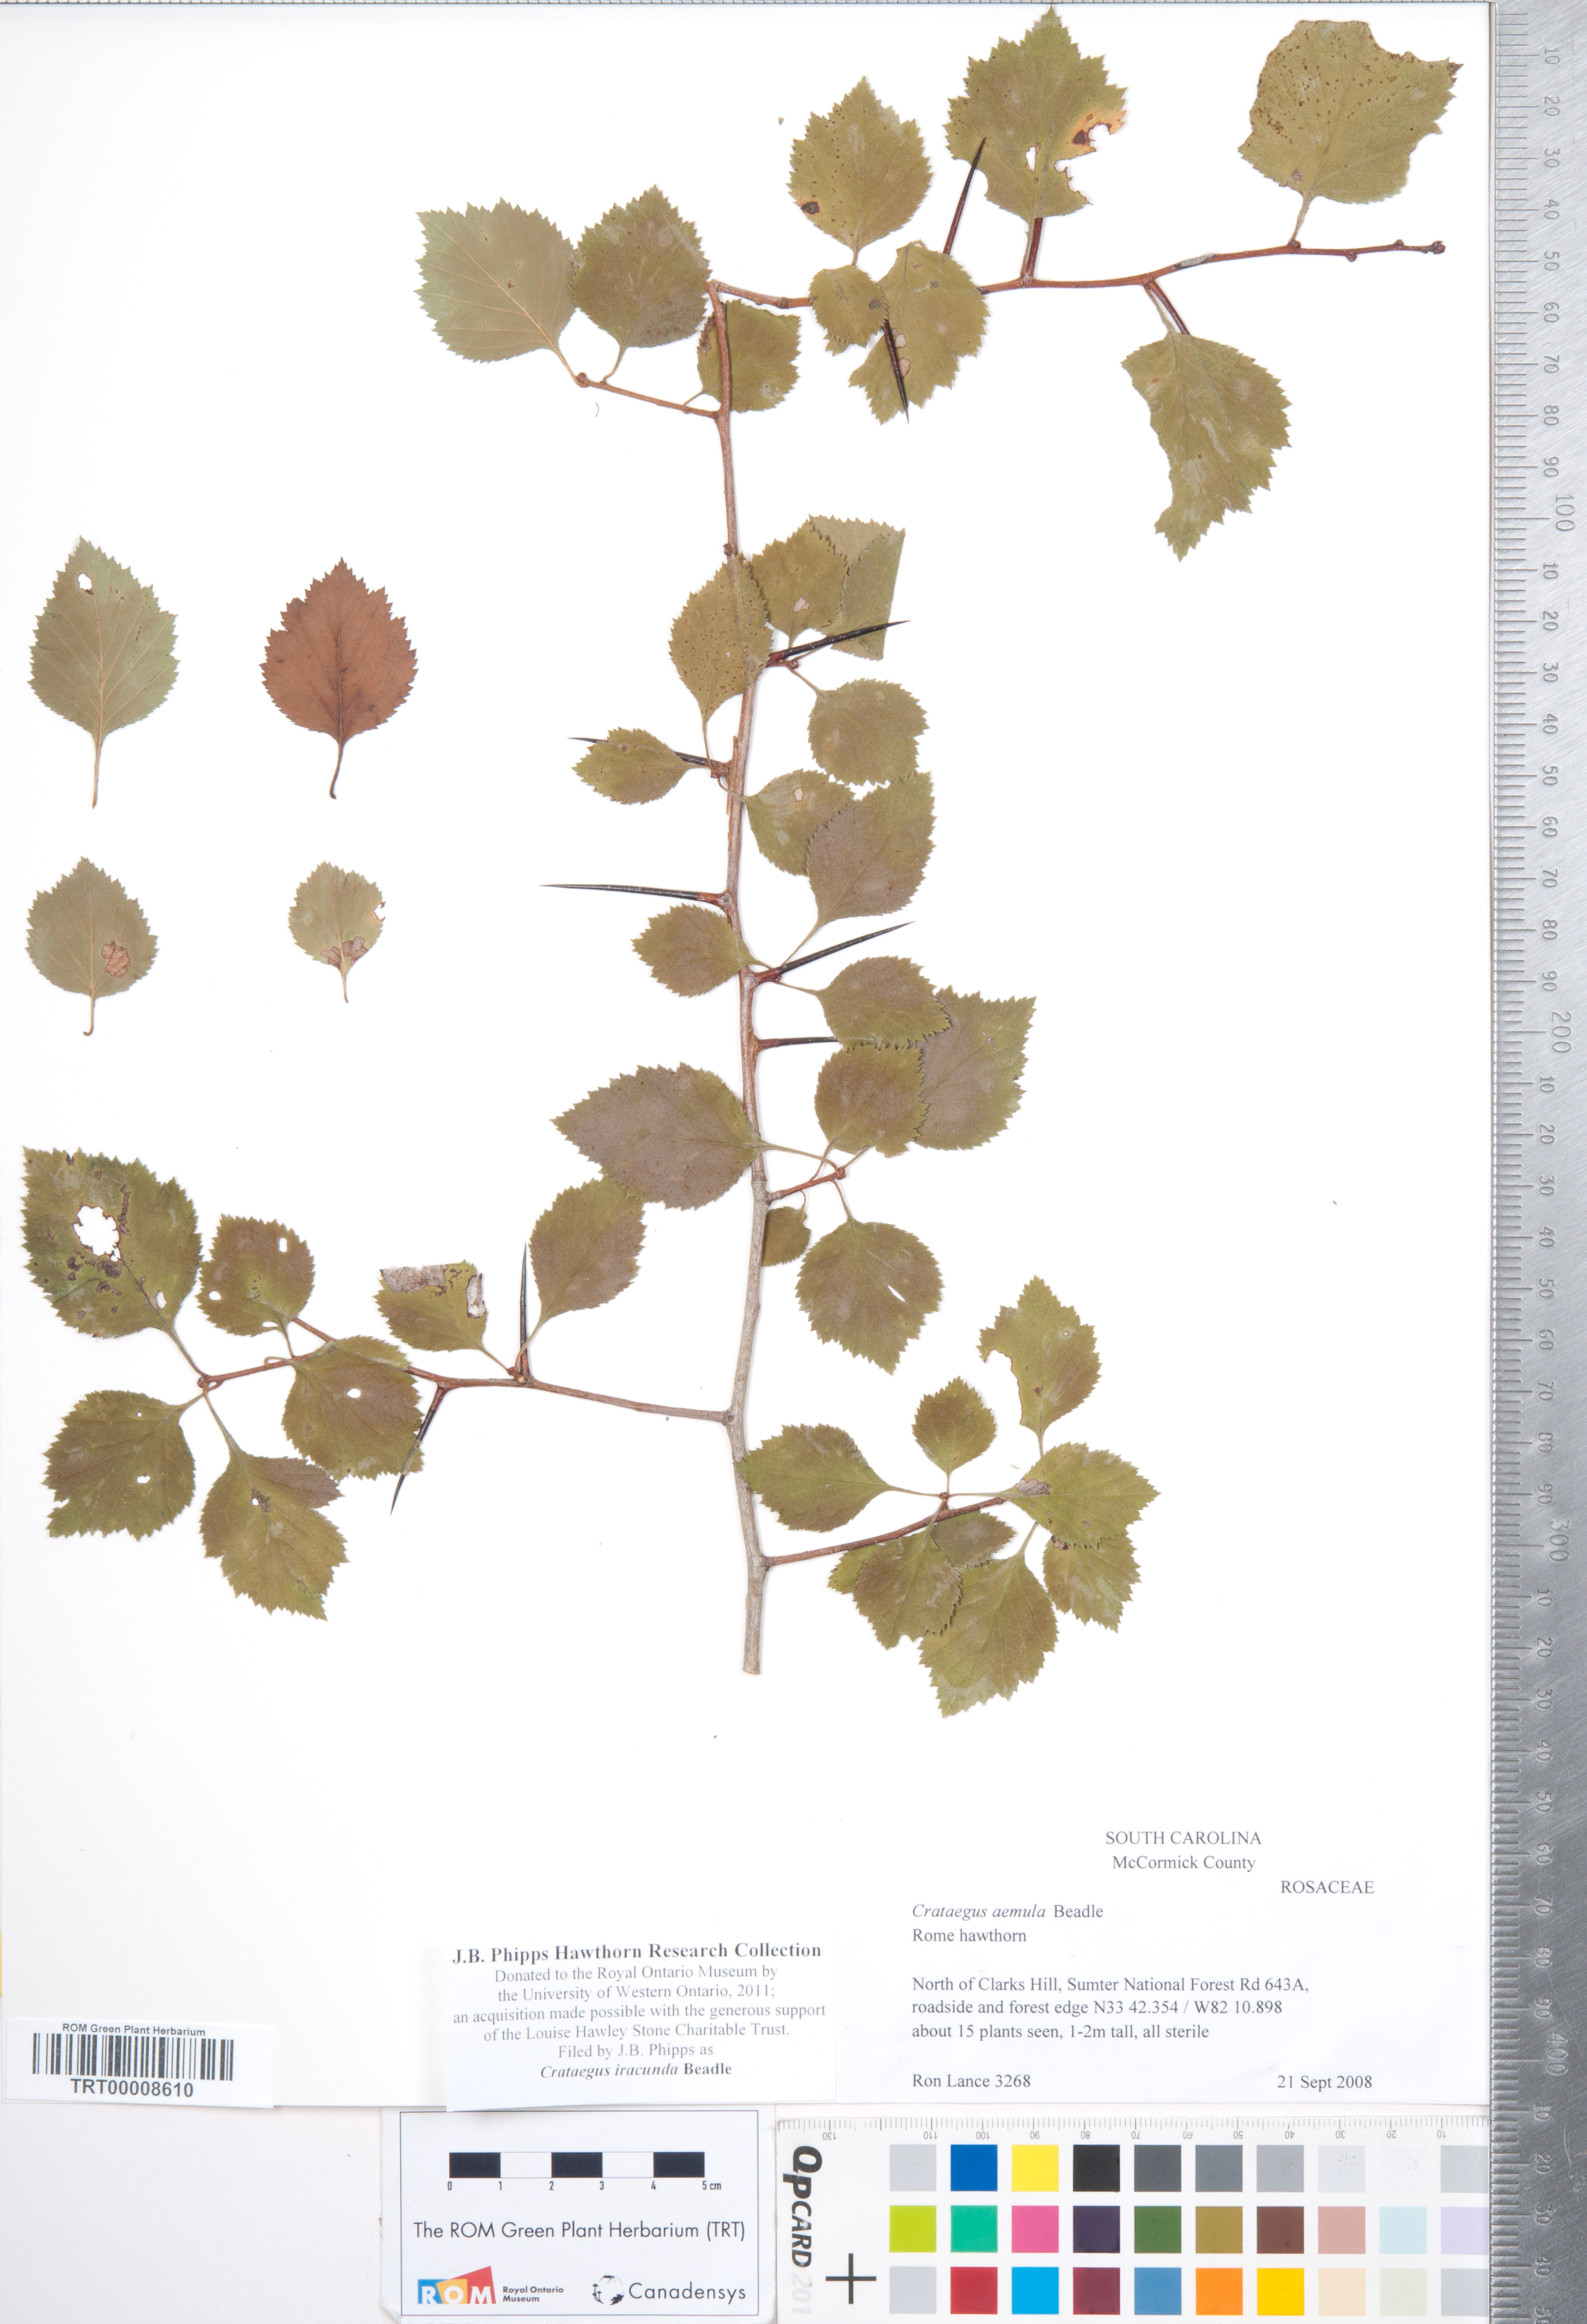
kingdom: Plantae
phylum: Tracheophyta
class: Magnoliopsida
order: Rosales
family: Rosaceae
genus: Crataegus
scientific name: Crataegus iracunda
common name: Stolon-bearing hawthorn
